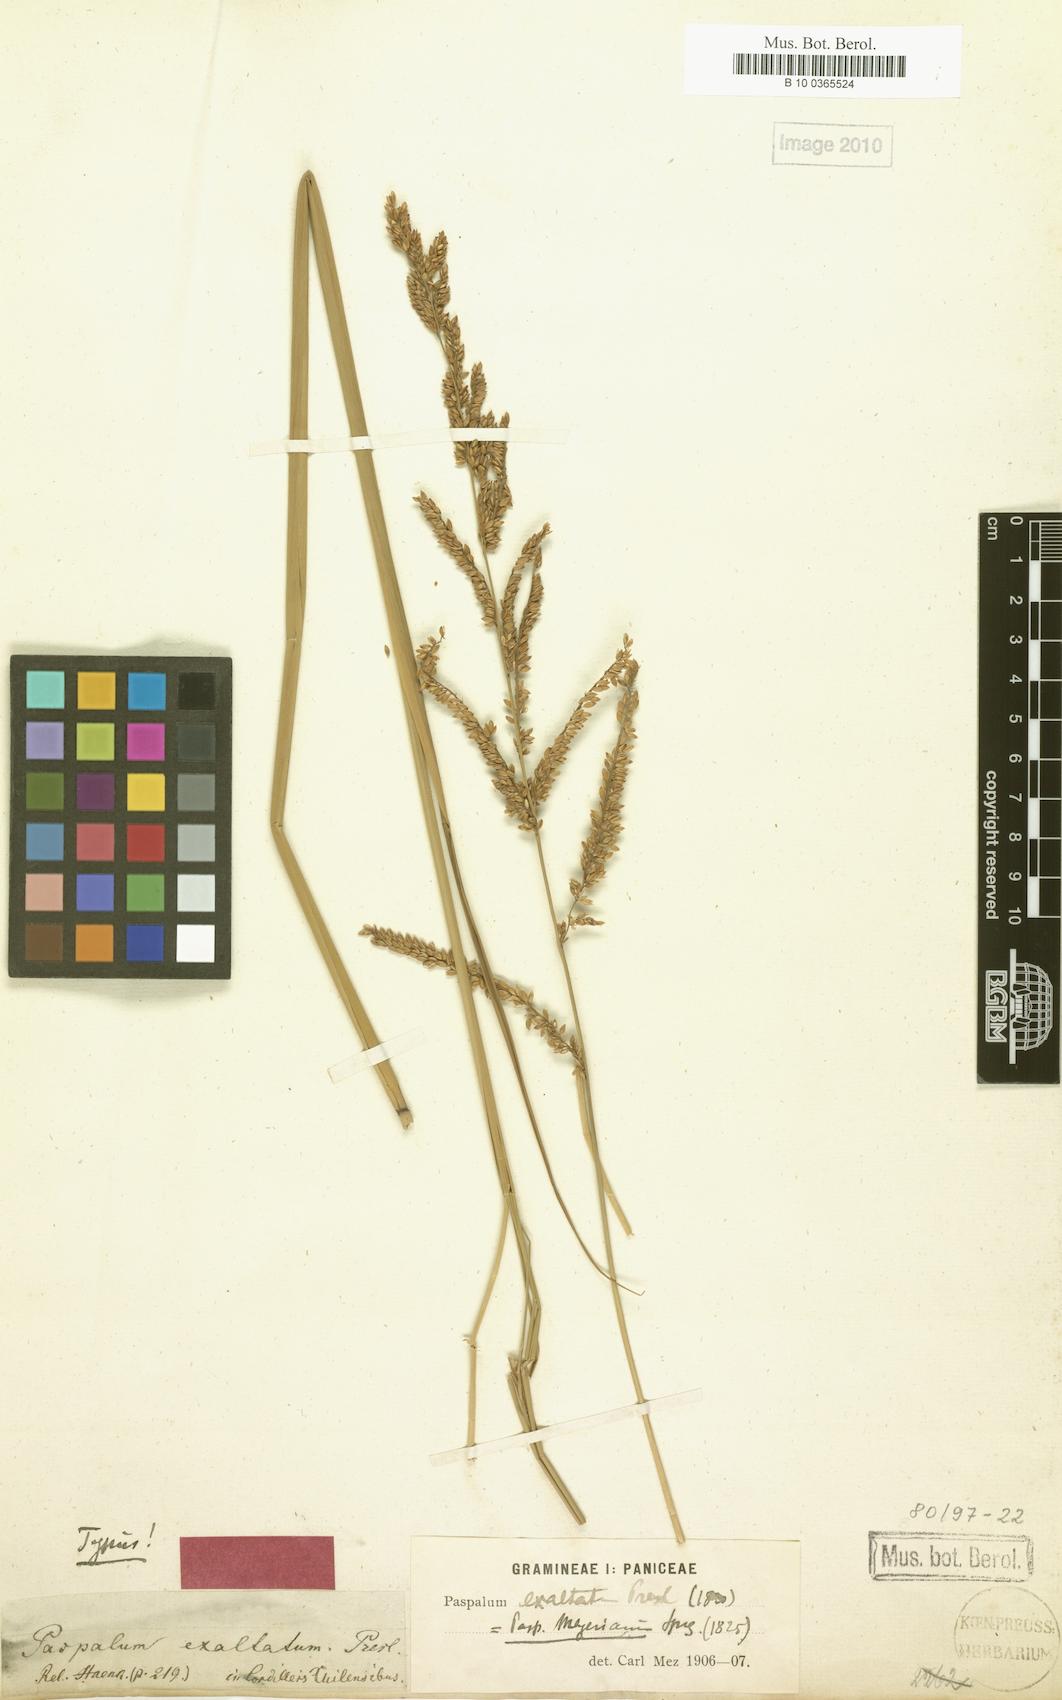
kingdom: Plantae
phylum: Tracheophyta
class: Liliopsida
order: Poales
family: Poaceae
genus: Paspalum
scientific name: Paspalum exaltatum
